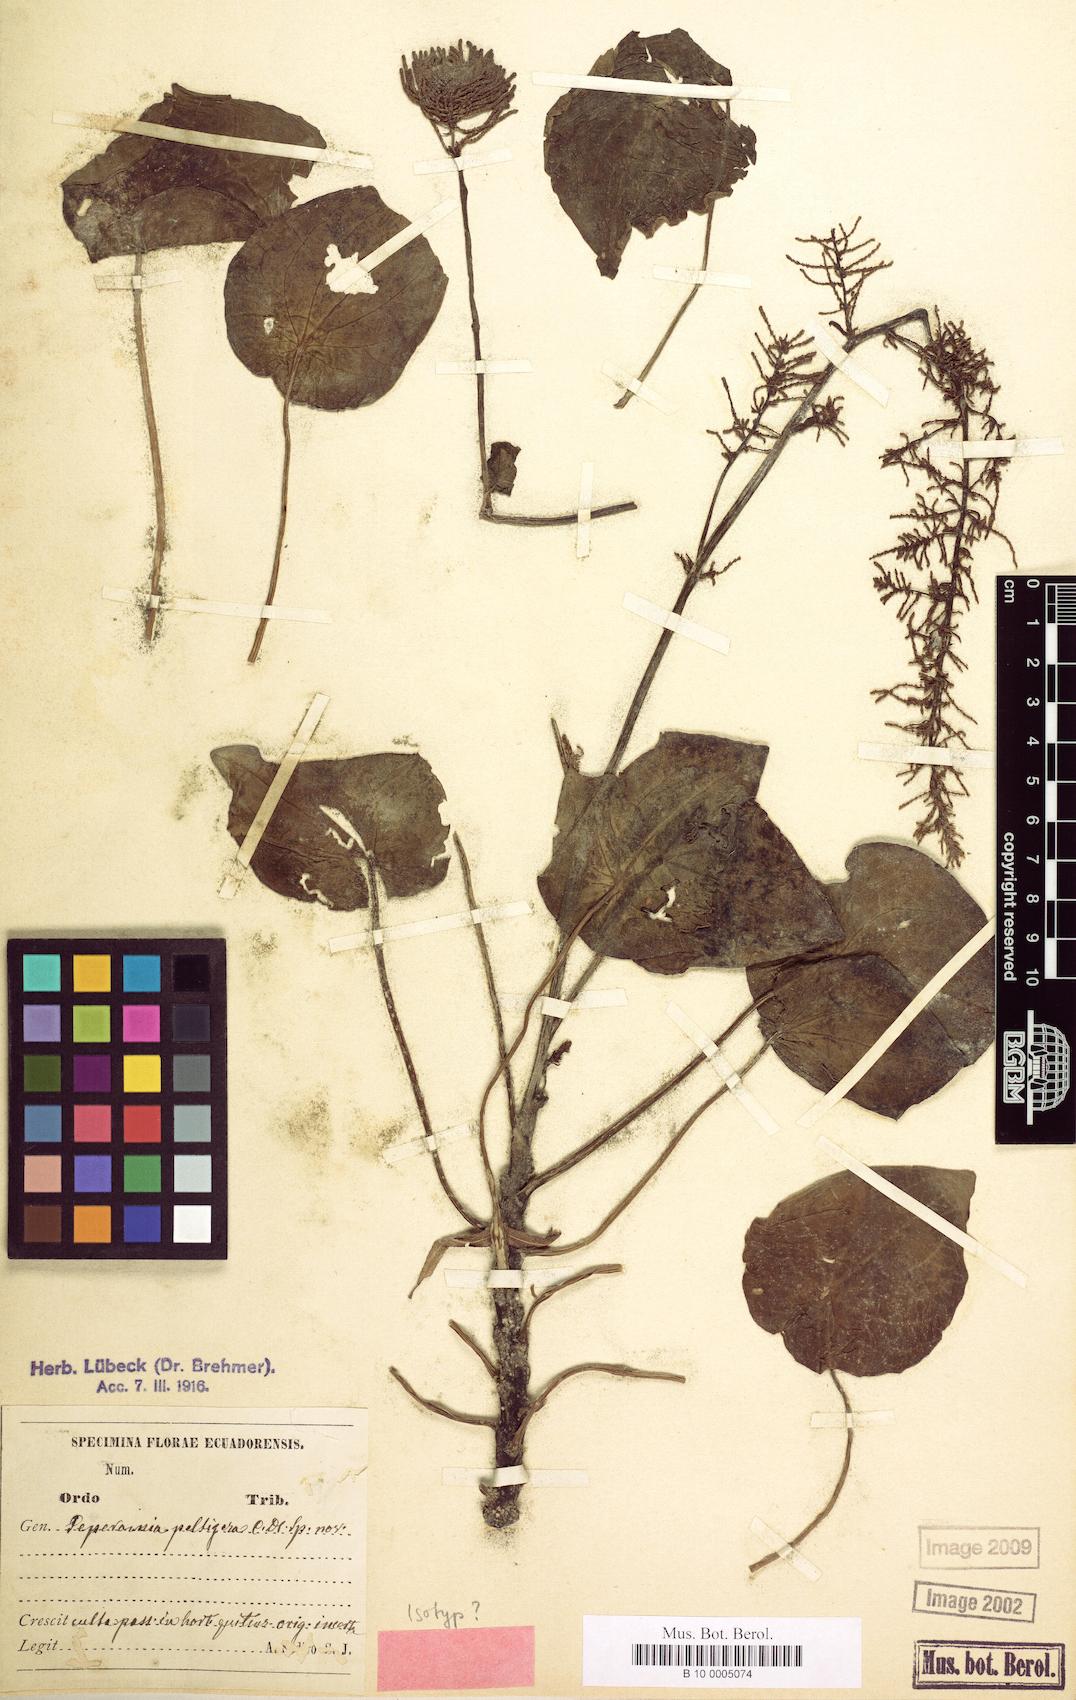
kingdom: Plantae
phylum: Tracheophyta
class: Magnoliopsida
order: Piperales
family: Piperaceae
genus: Peperomia
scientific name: Peperomia peltigera
